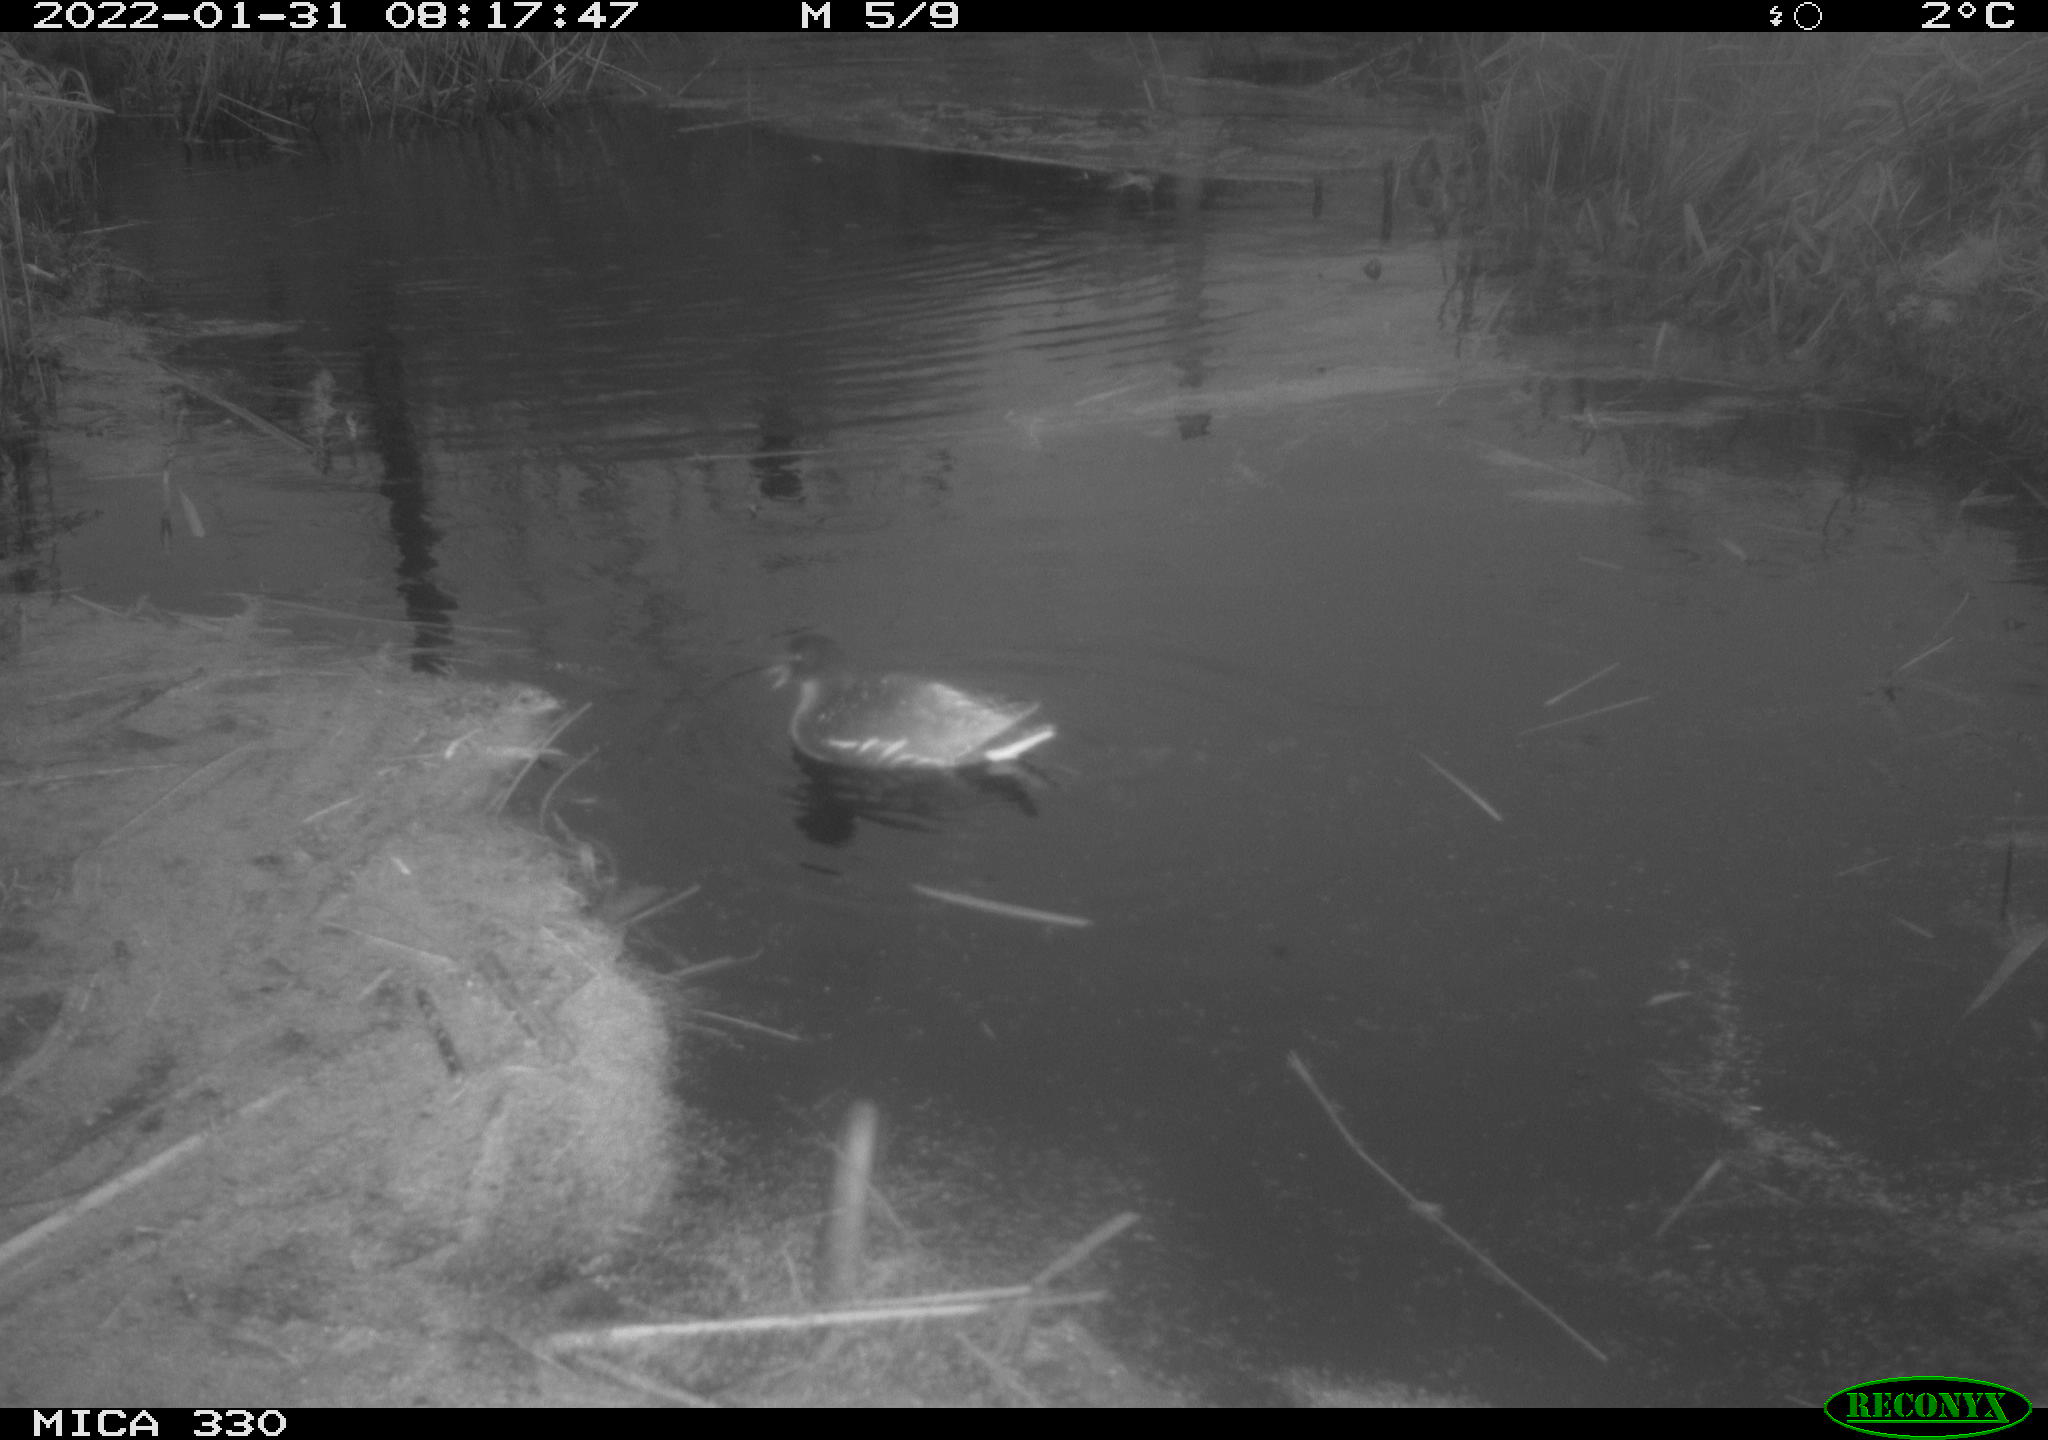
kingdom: Animalia
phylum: Chordata
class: Aves
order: Gruiformes
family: Rallidae
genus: Gallinula
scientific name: Gallinula chloropus
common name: Common moorhen
